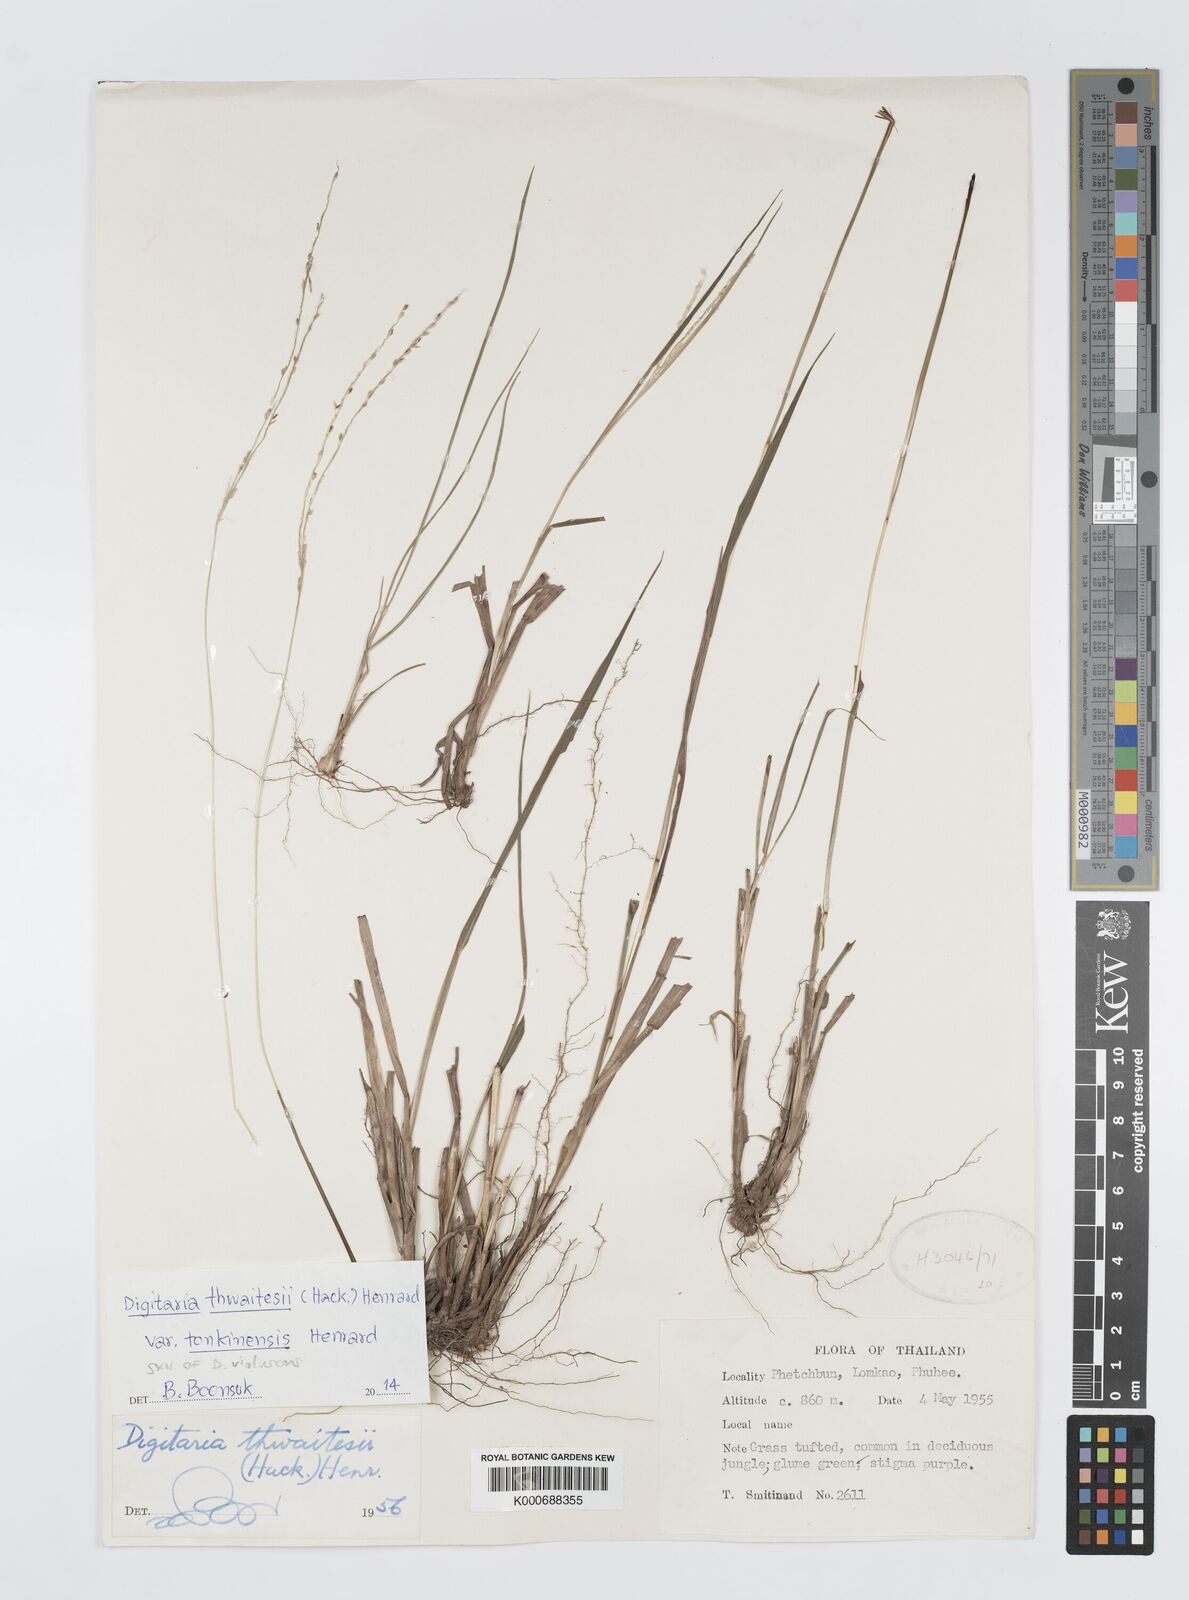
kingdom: Plantae
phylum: Tracheophyta
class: Liliopsida
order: Poales
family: Poaceae
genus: Digitaria
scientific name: Digitaria
